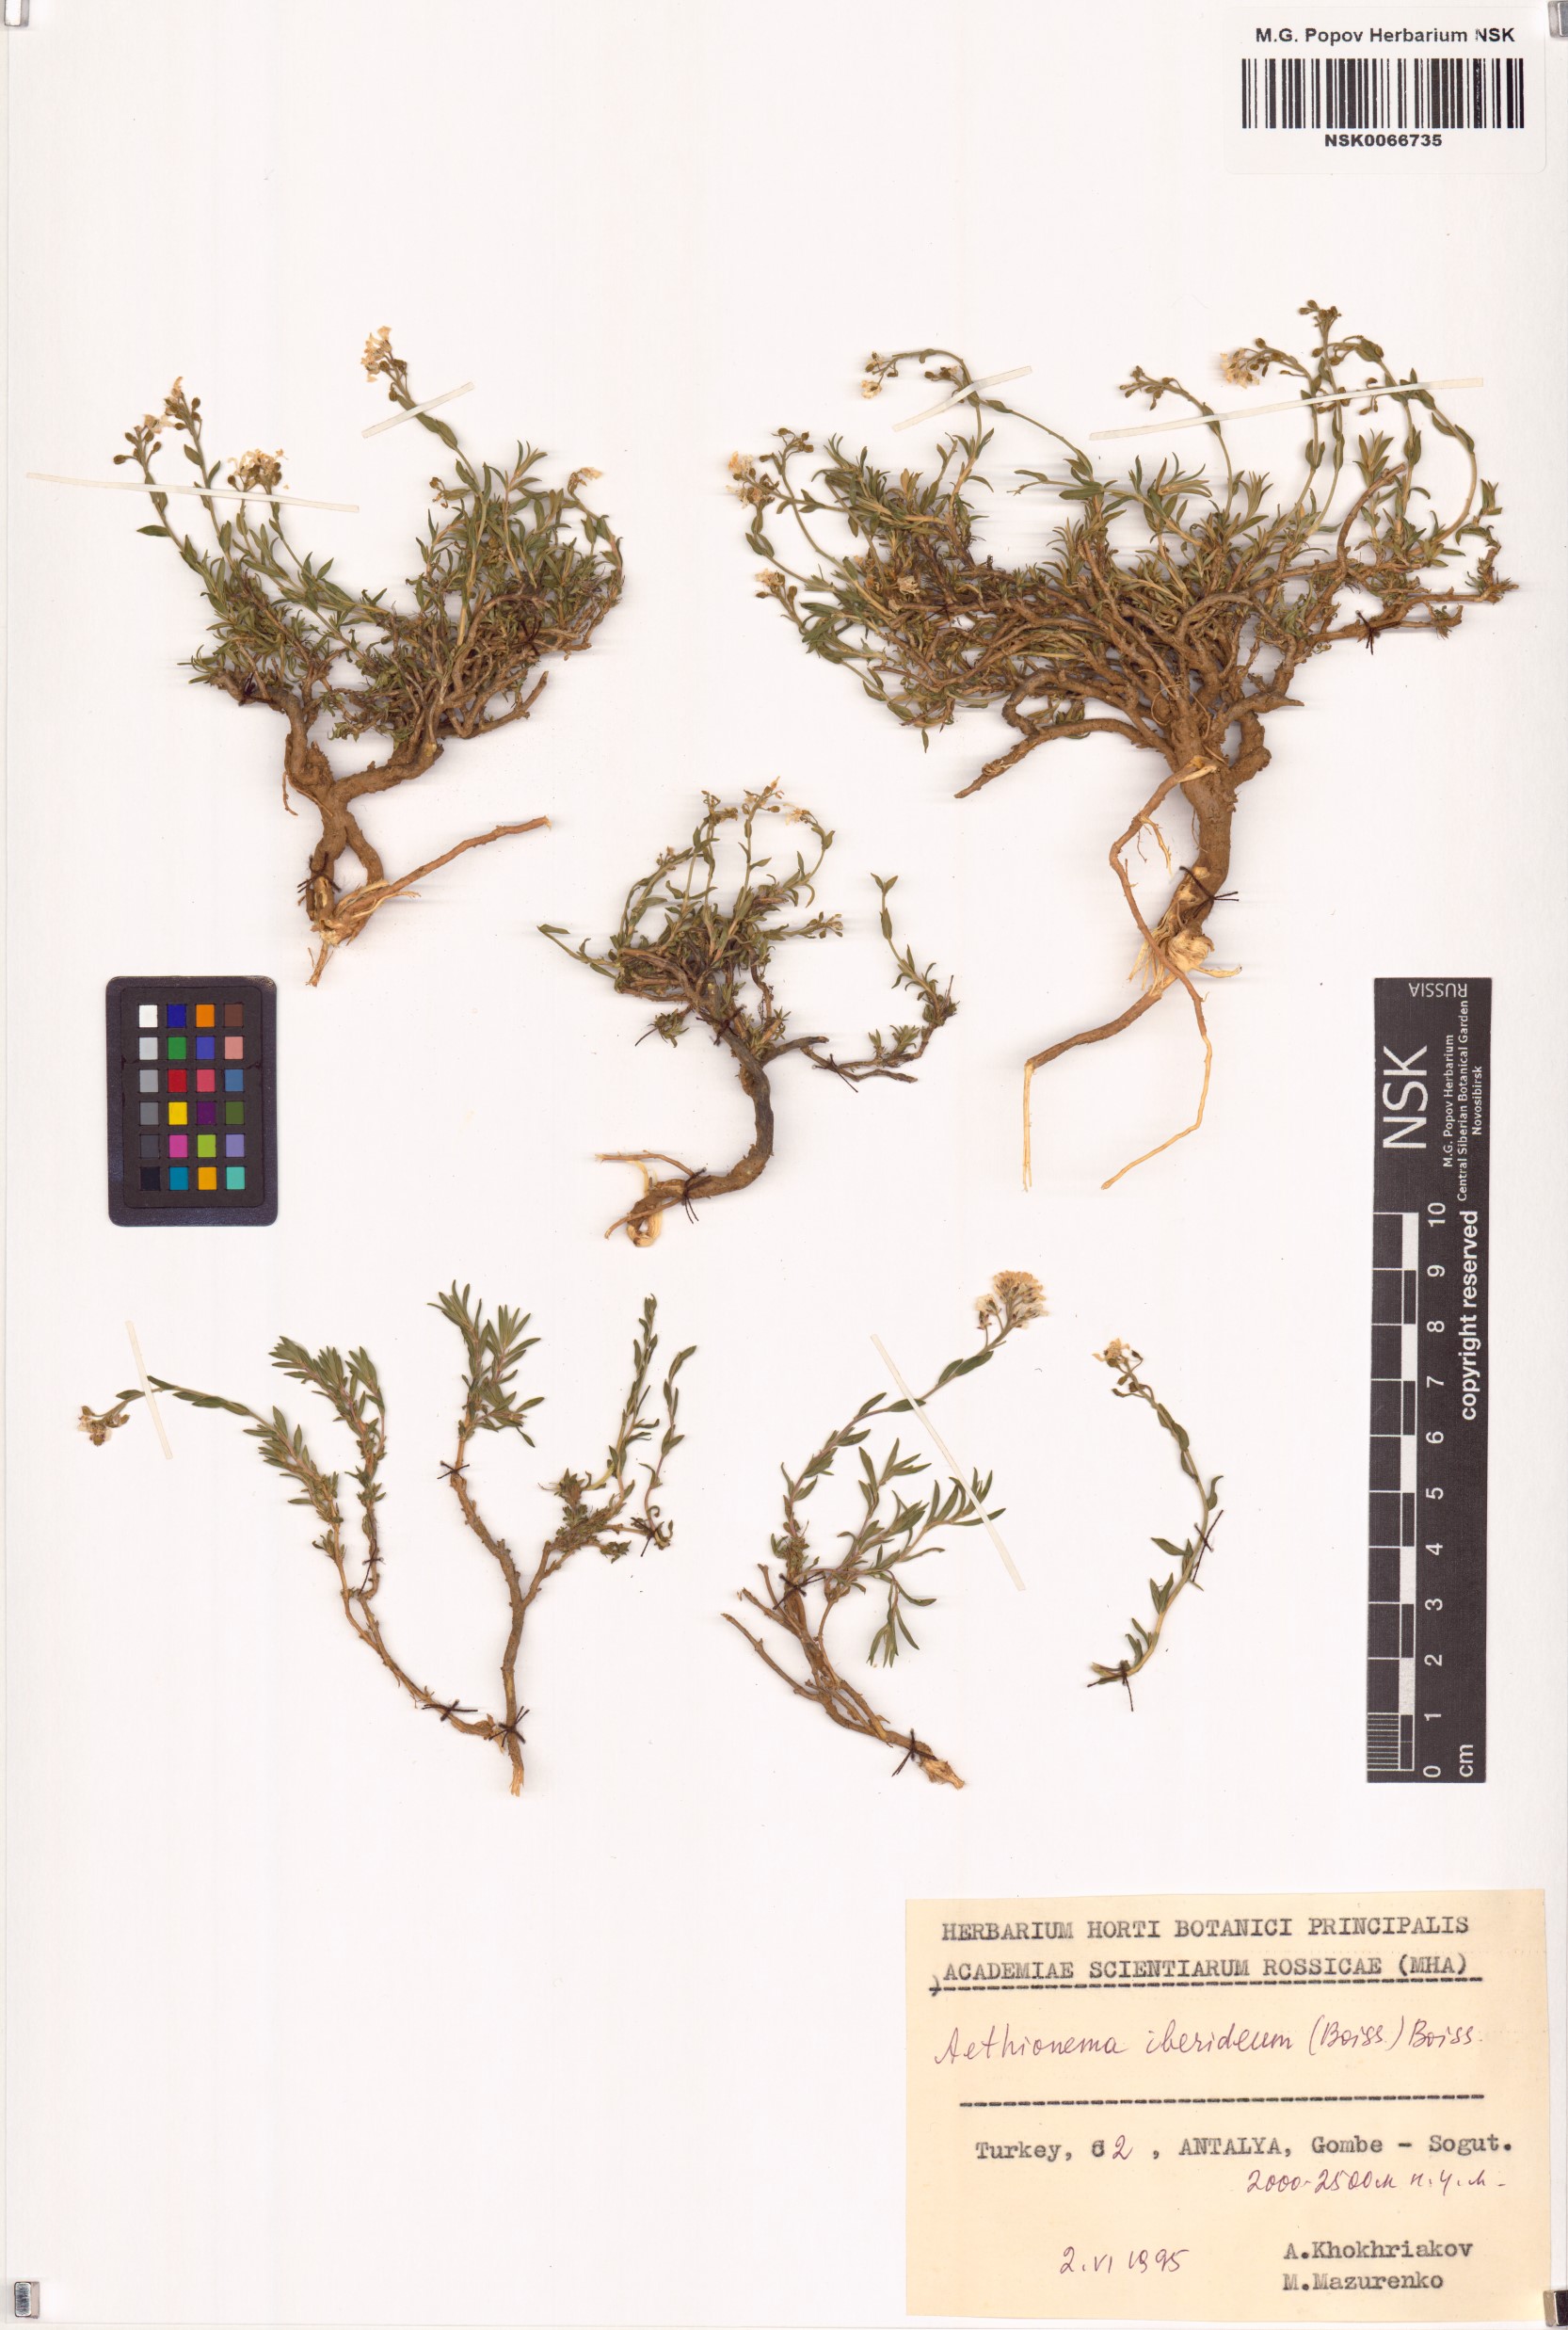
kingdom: Plantae
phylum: Tracheophyta
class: Magnoliopsida
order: Brassicales
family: Brassicaceae
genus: Noccaea
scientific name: Noccaea iberidea
